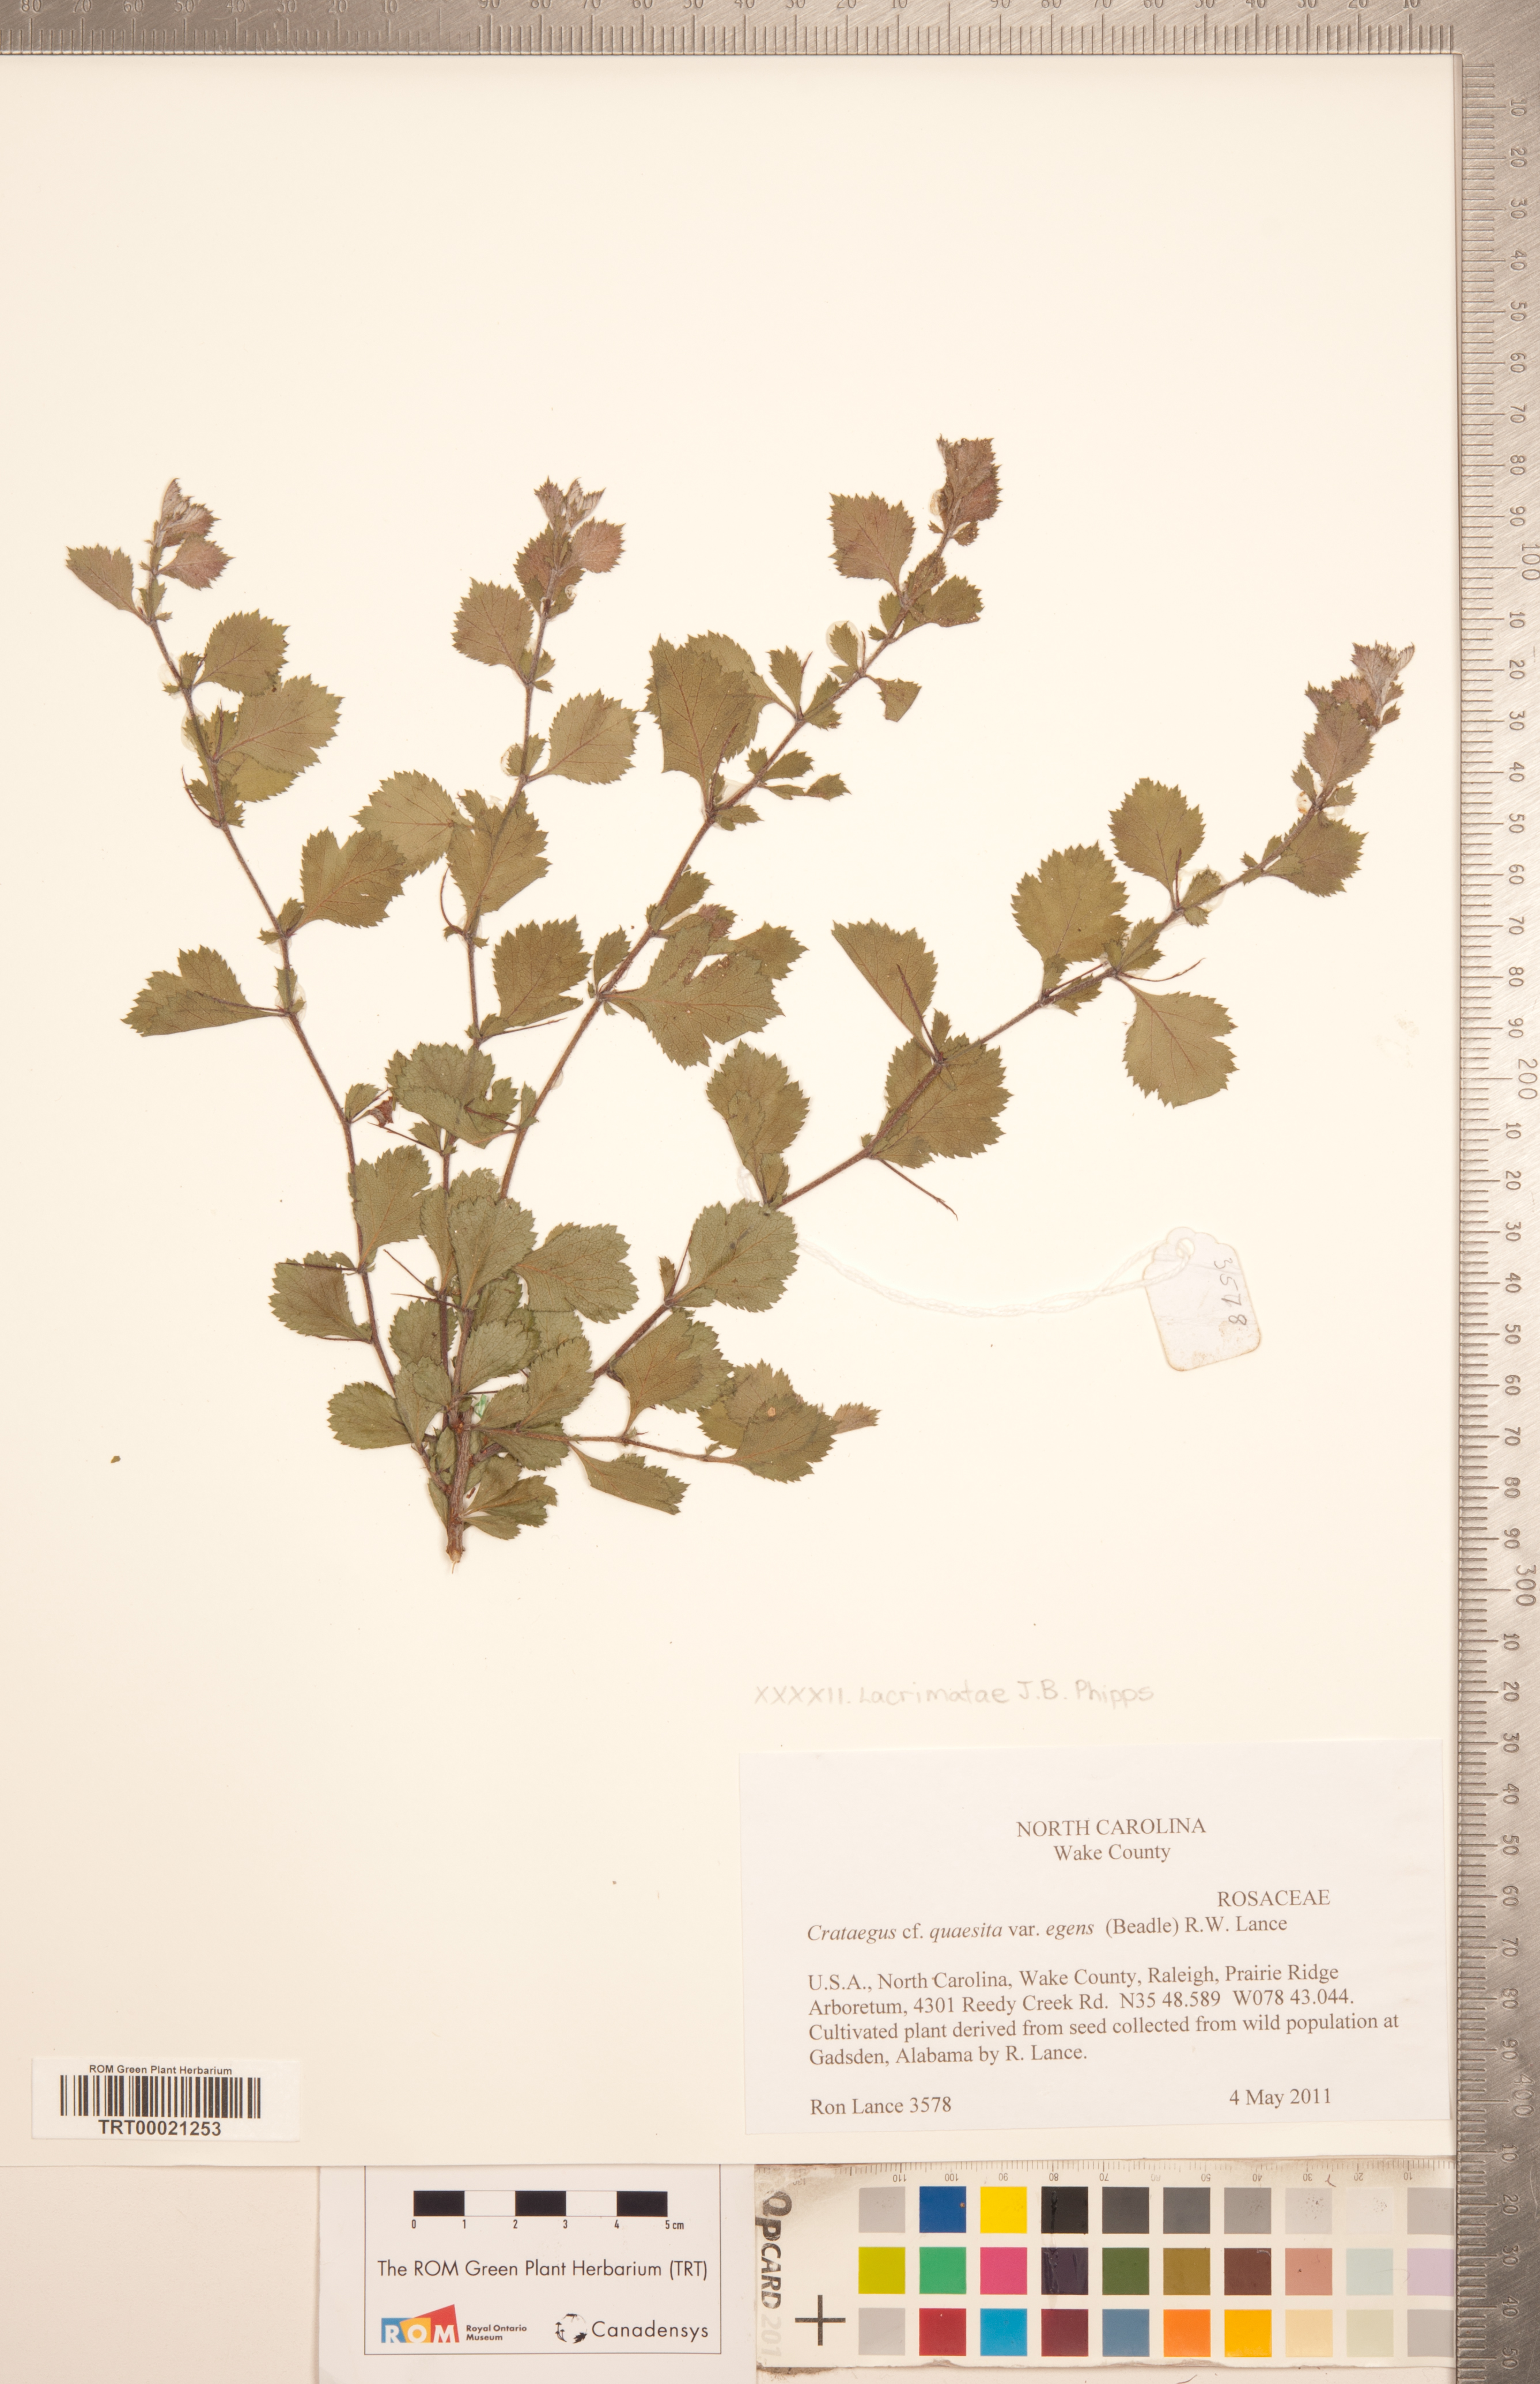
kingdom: Plantae
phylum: Tracheophyta
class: Magnoliopsida
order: Rosales
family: Rosaceae
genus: Crataegus
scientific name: Crataegus senta
